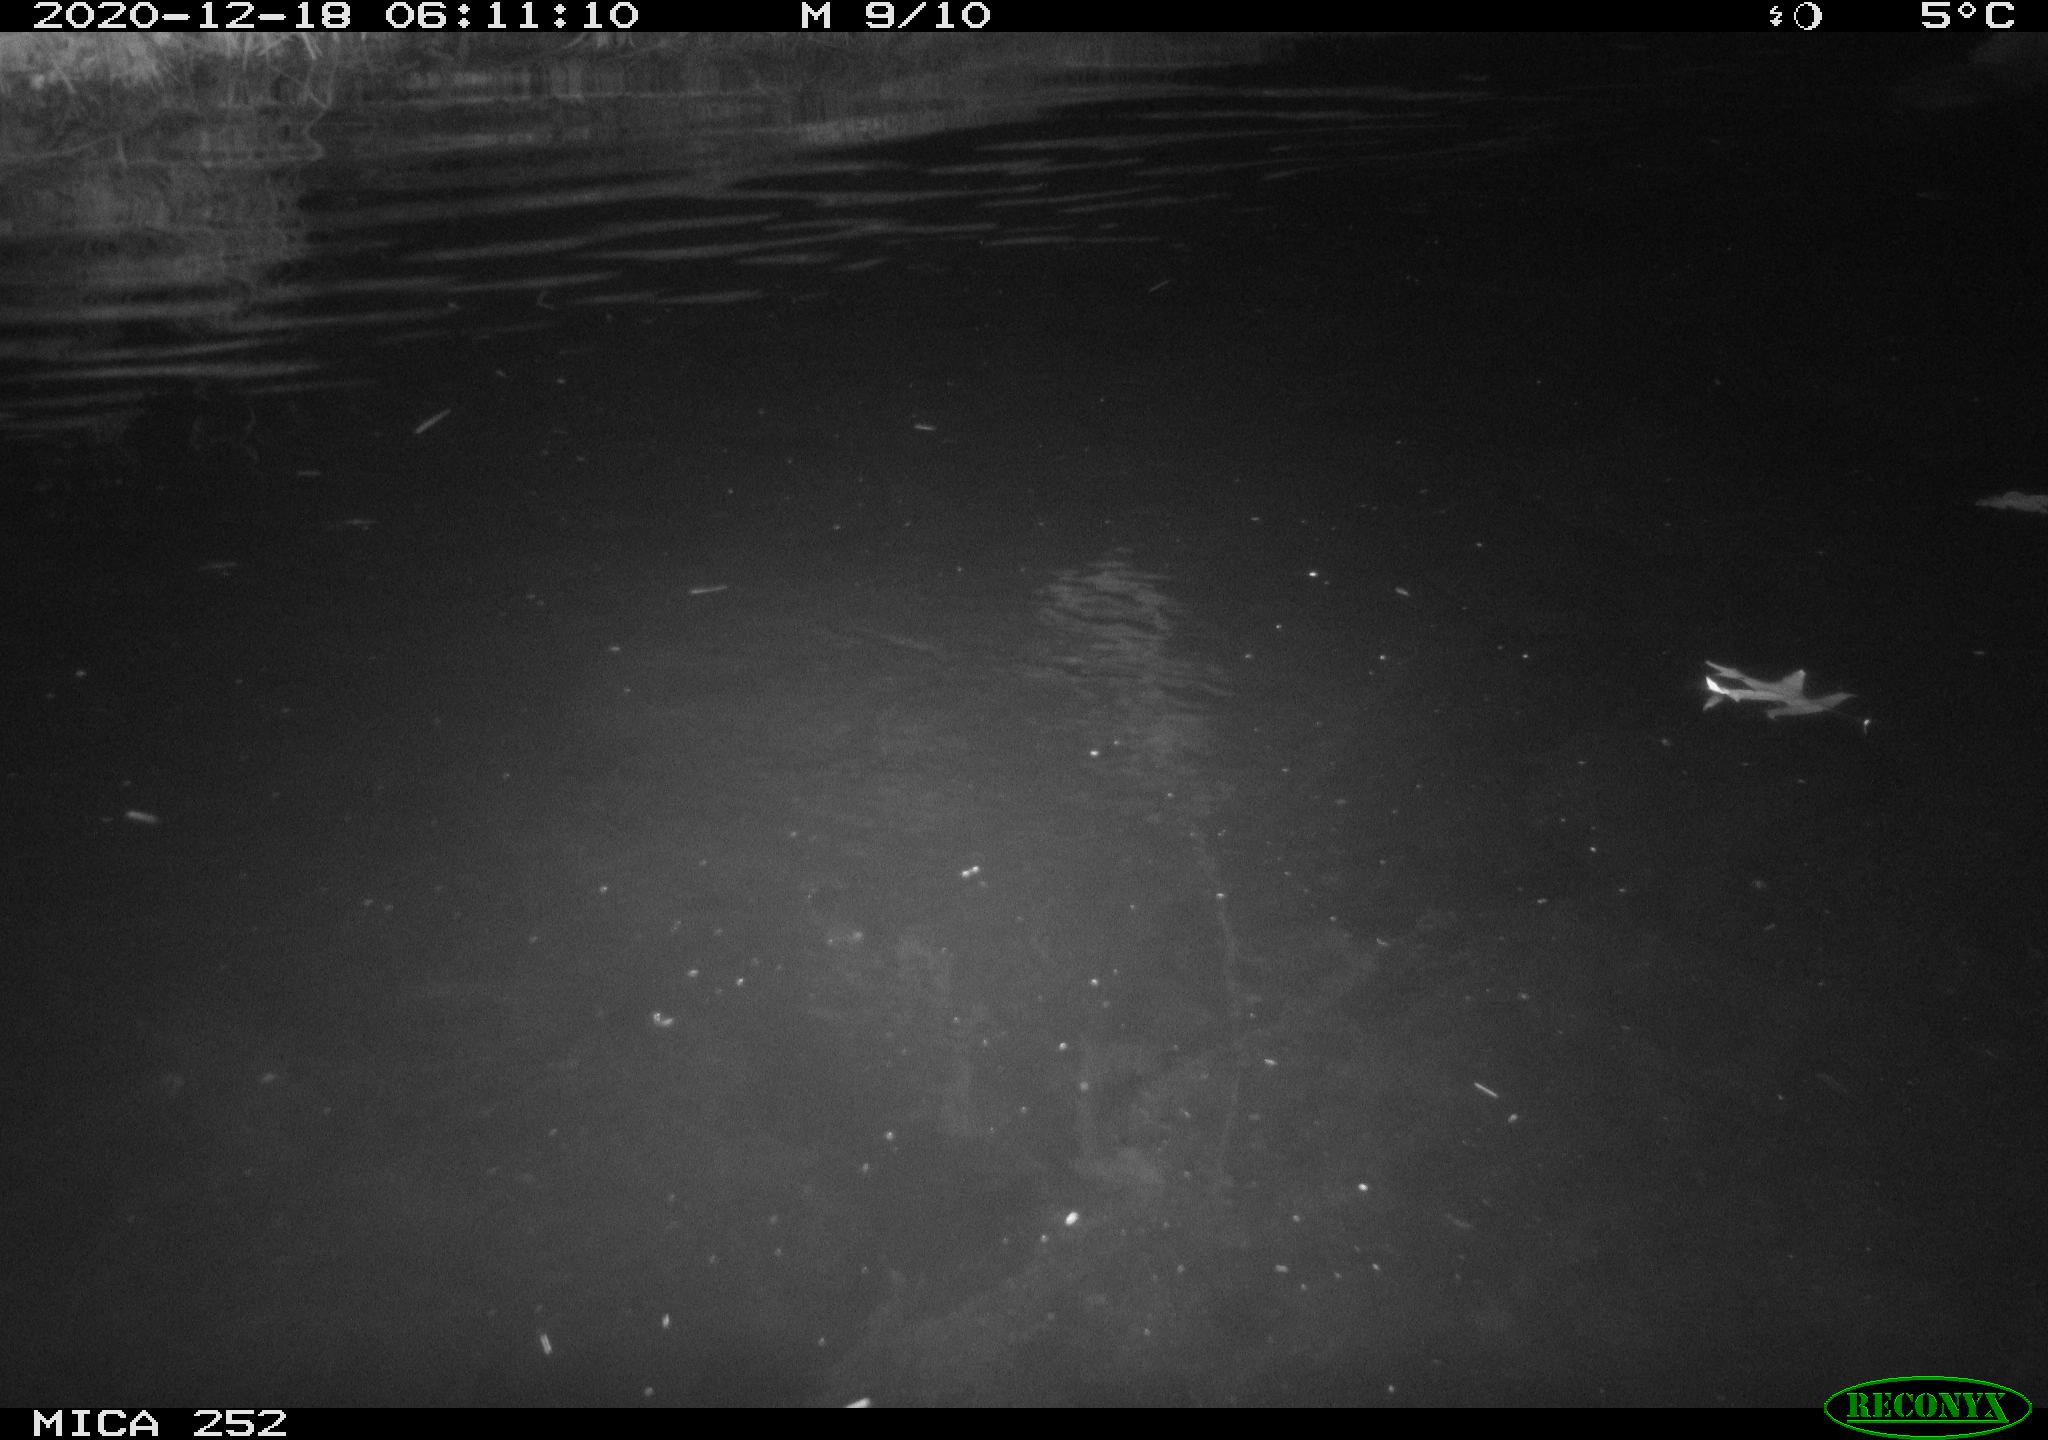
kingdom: Animalia
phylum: Chordata
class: Mammalia
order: Rodentia
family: Castoridae
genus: Castor
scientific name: Castor fiber
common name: Eurasian beaver
